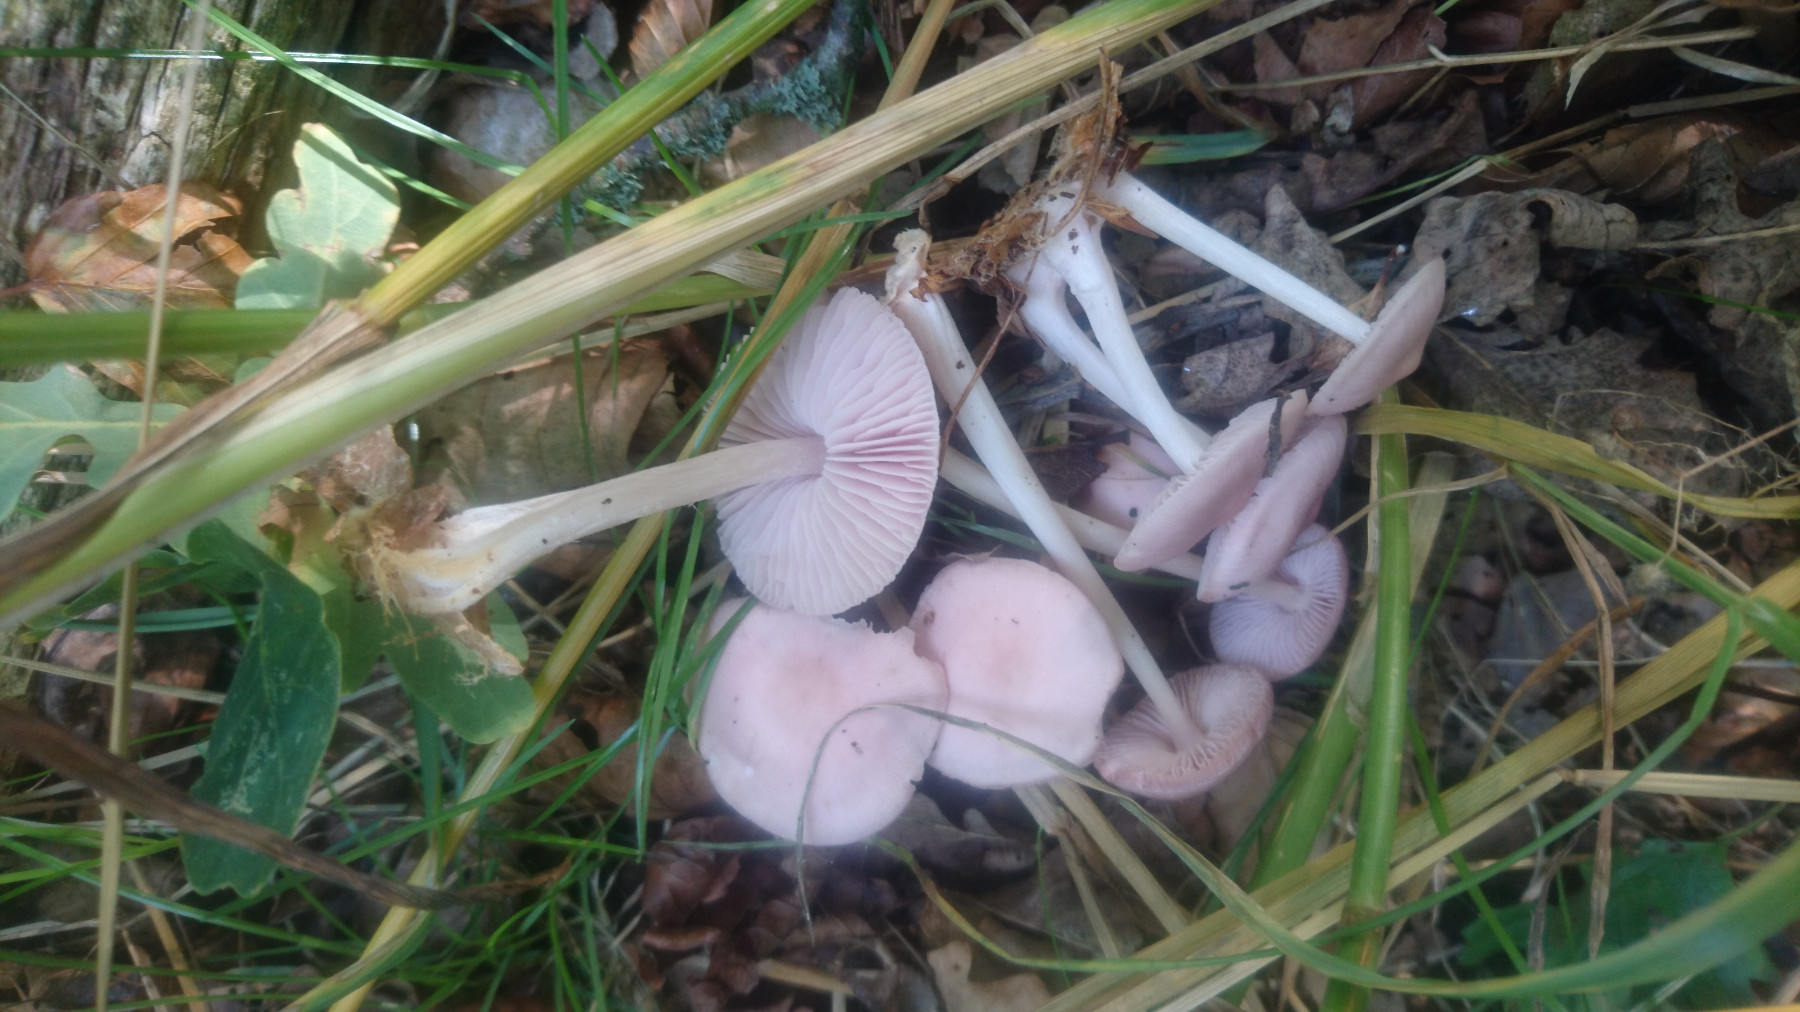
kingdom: Fungi
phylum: Basidiomycota
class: Agaricomycetes
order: Agaricales
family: Mycenaceae
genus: Mycena
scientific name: Mycena rosea
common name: rosa huesvamp
